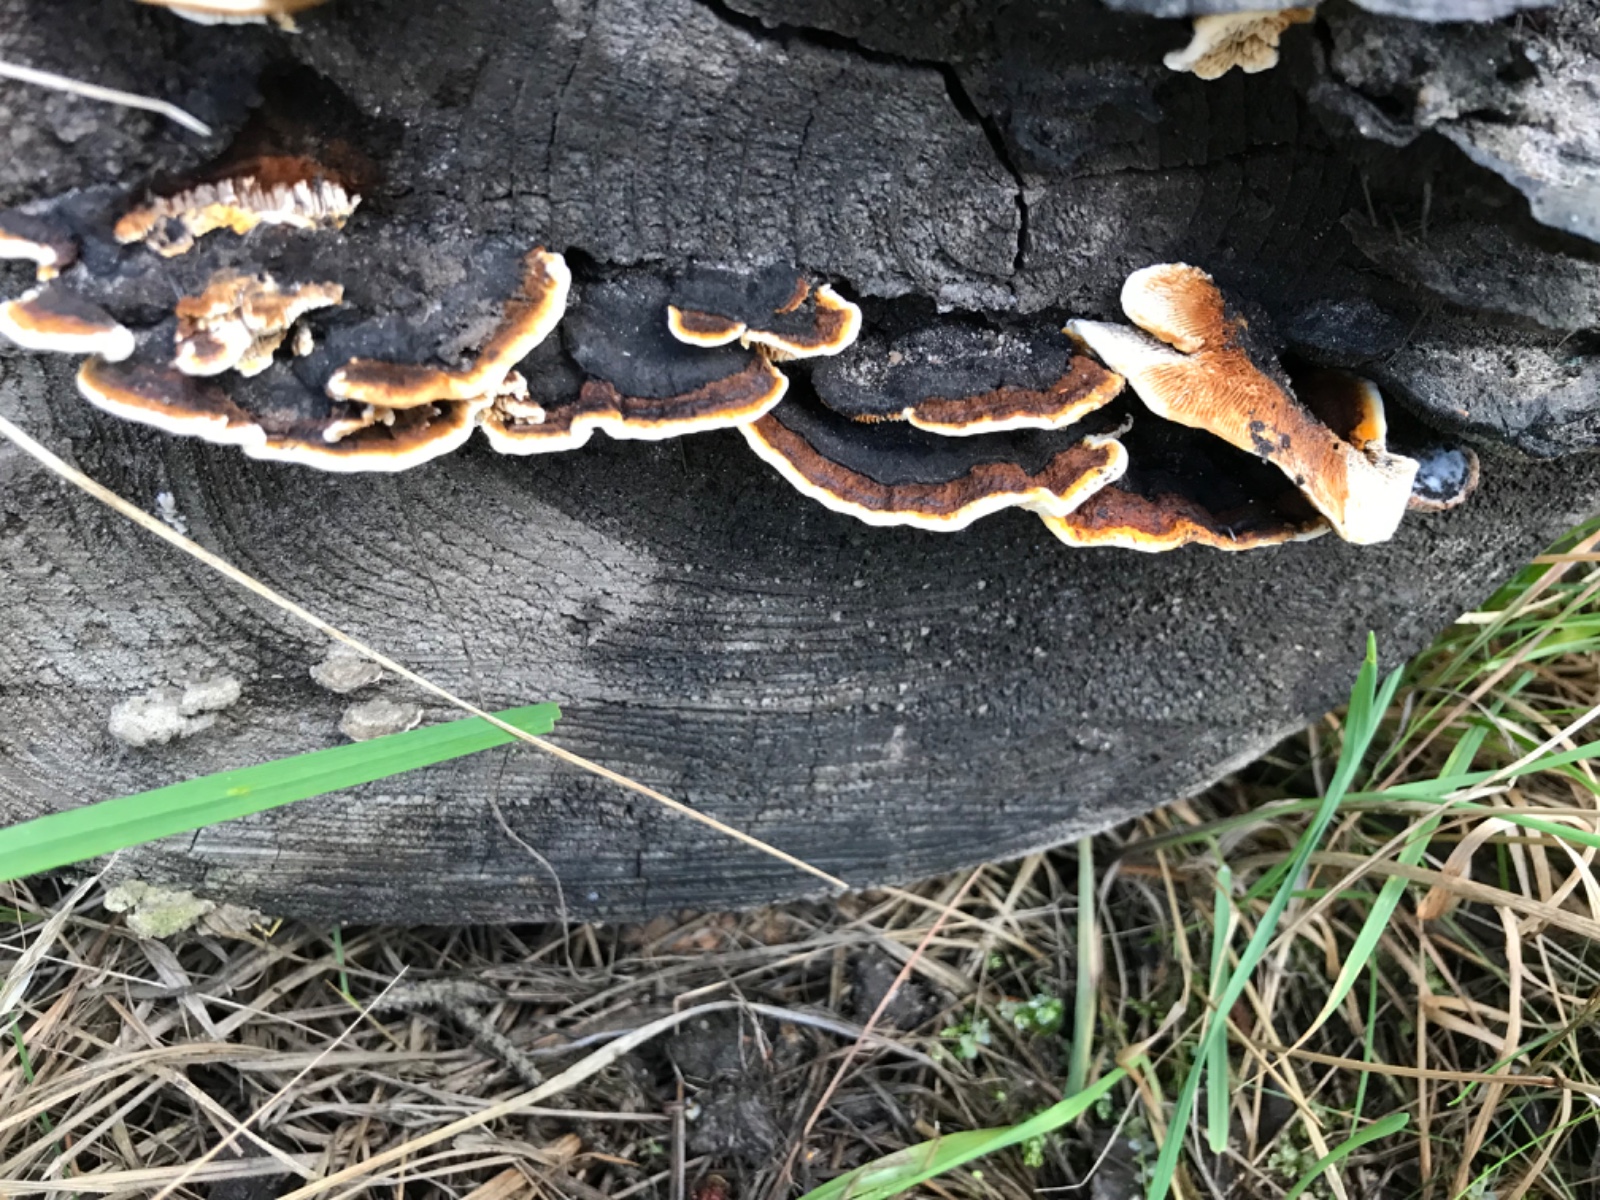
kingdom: Fungi
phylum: Basidiomycota
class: Agaricomycetes
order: Gloeophyllales
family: Gloeophyllaceae
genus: Gloeophyllum
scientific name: Gloeophyllum sepiarium
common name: fyrre-korkhat
